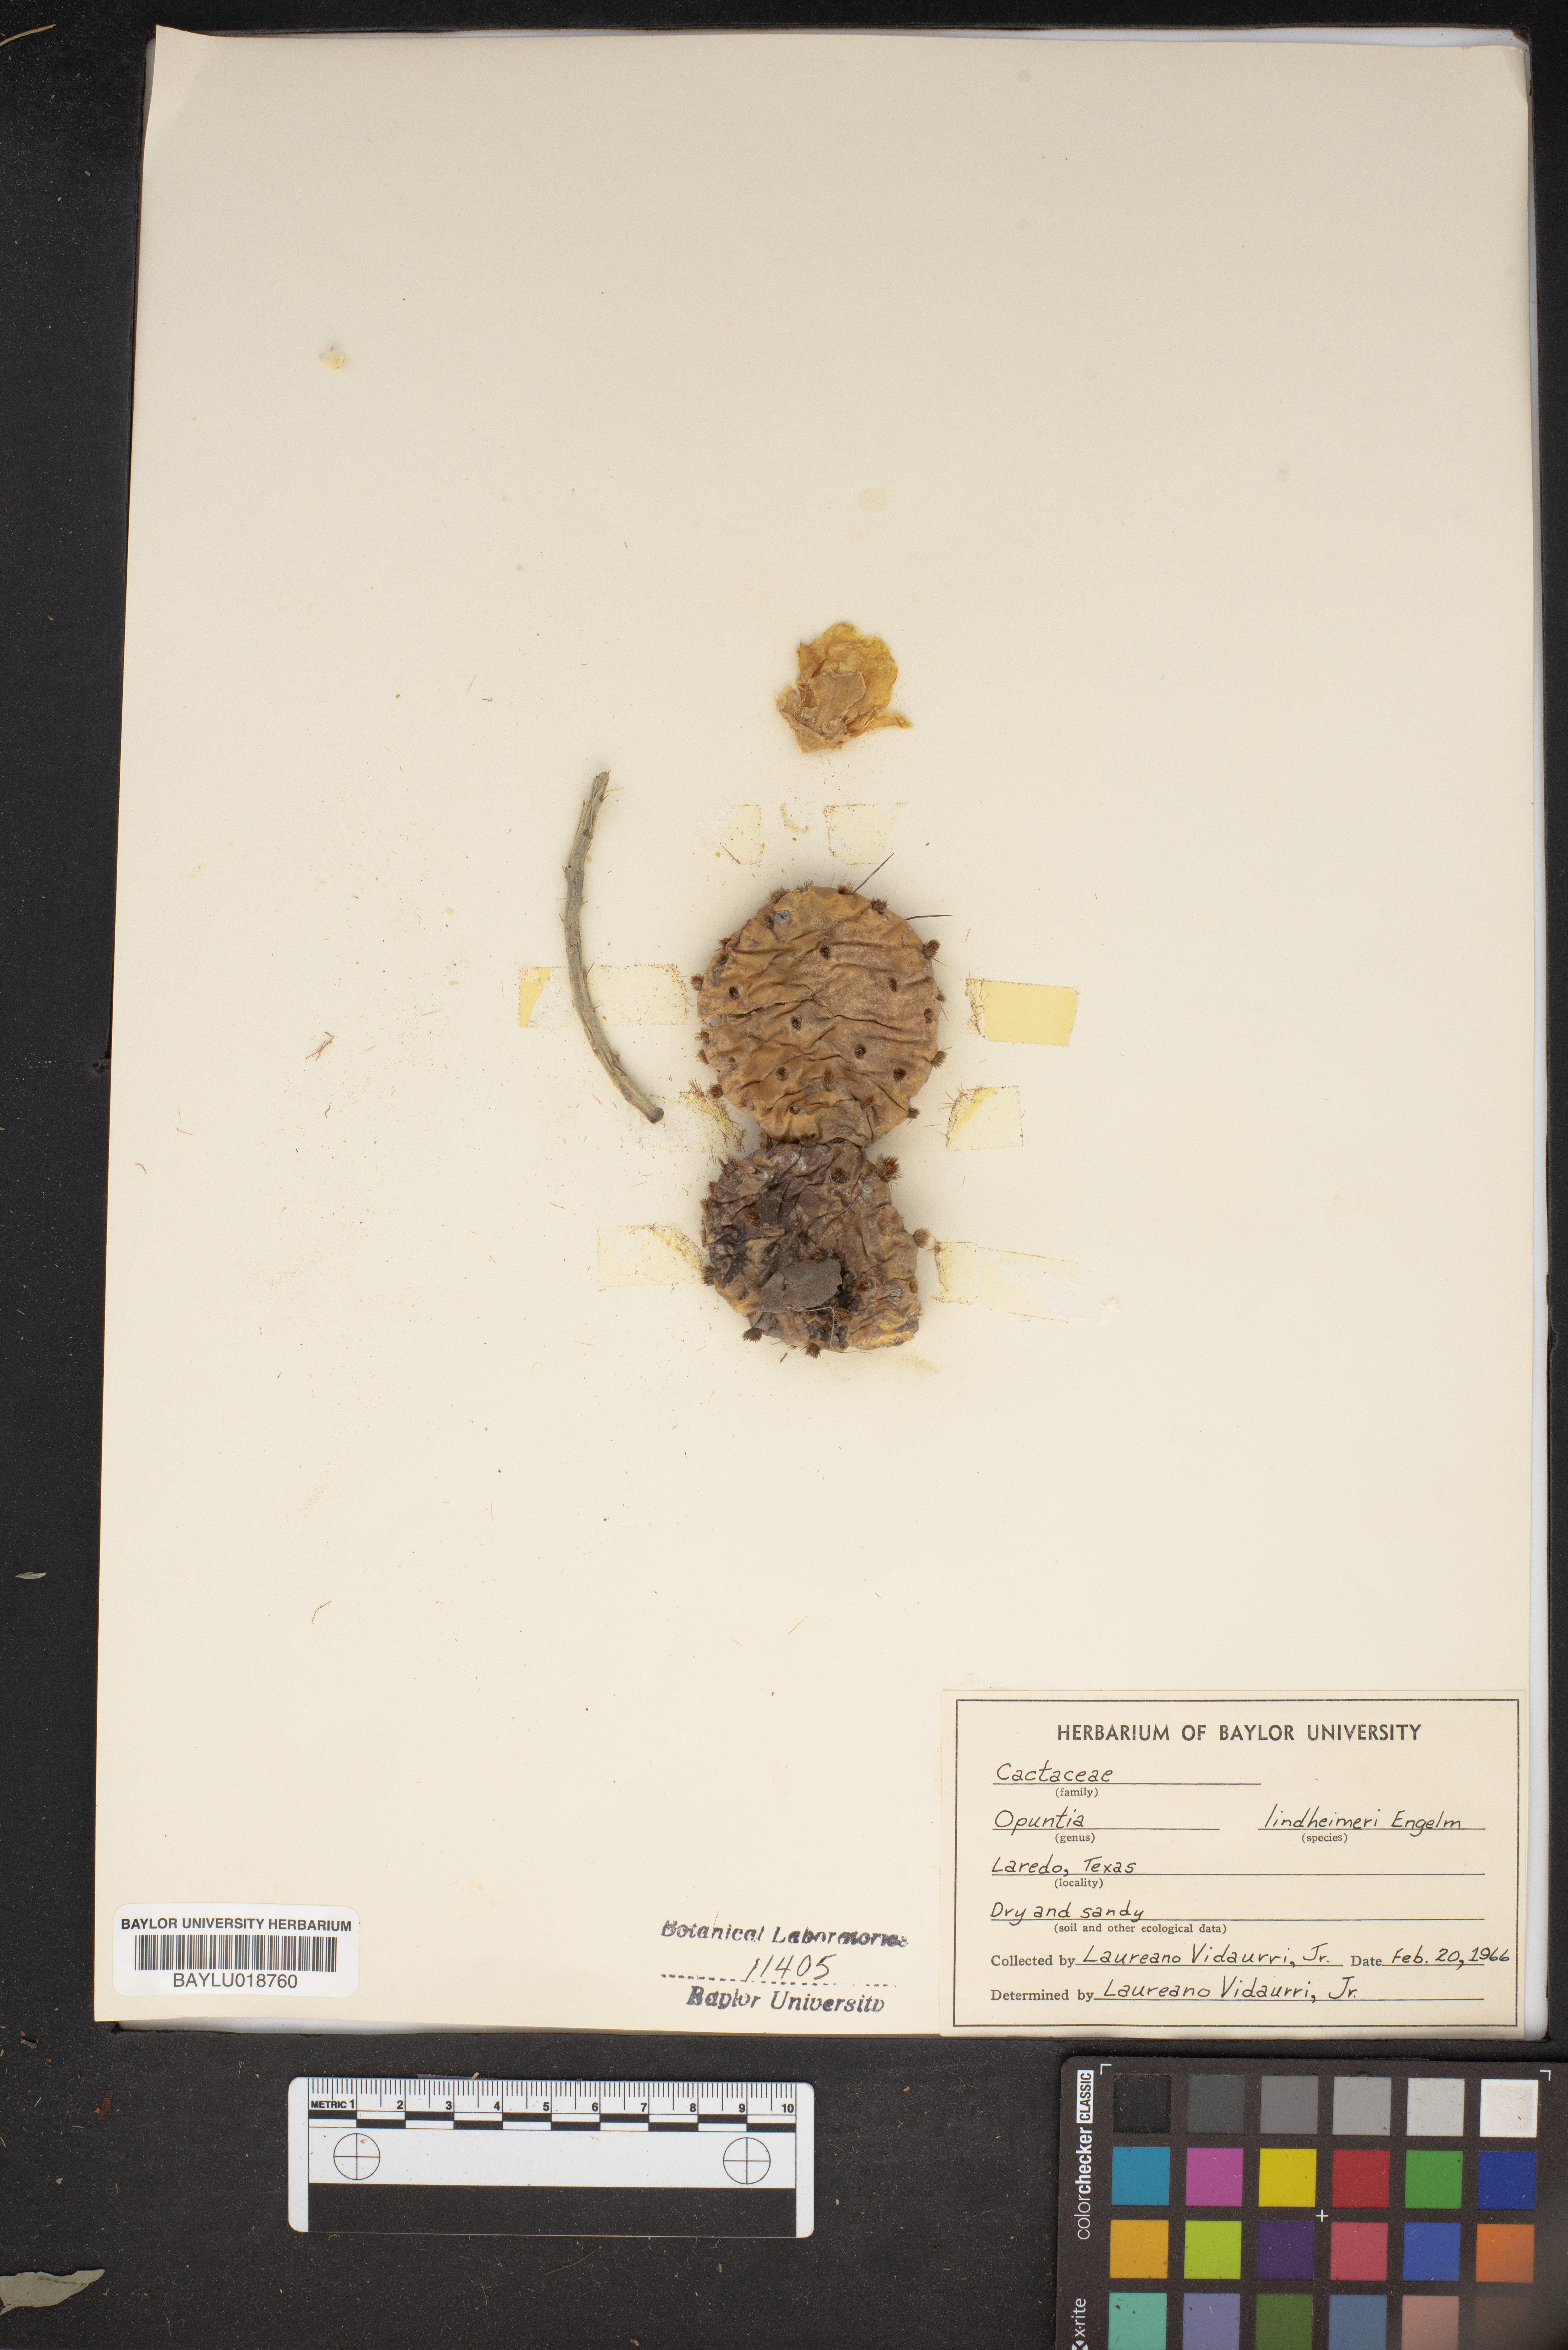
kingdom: Plantae
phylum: Tracheophyta
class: Magnoliopsida
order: Caryophyllales
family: Cactaceae
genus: Opuntia
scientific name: Opuntia engelmannii
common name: Cactus-apple
